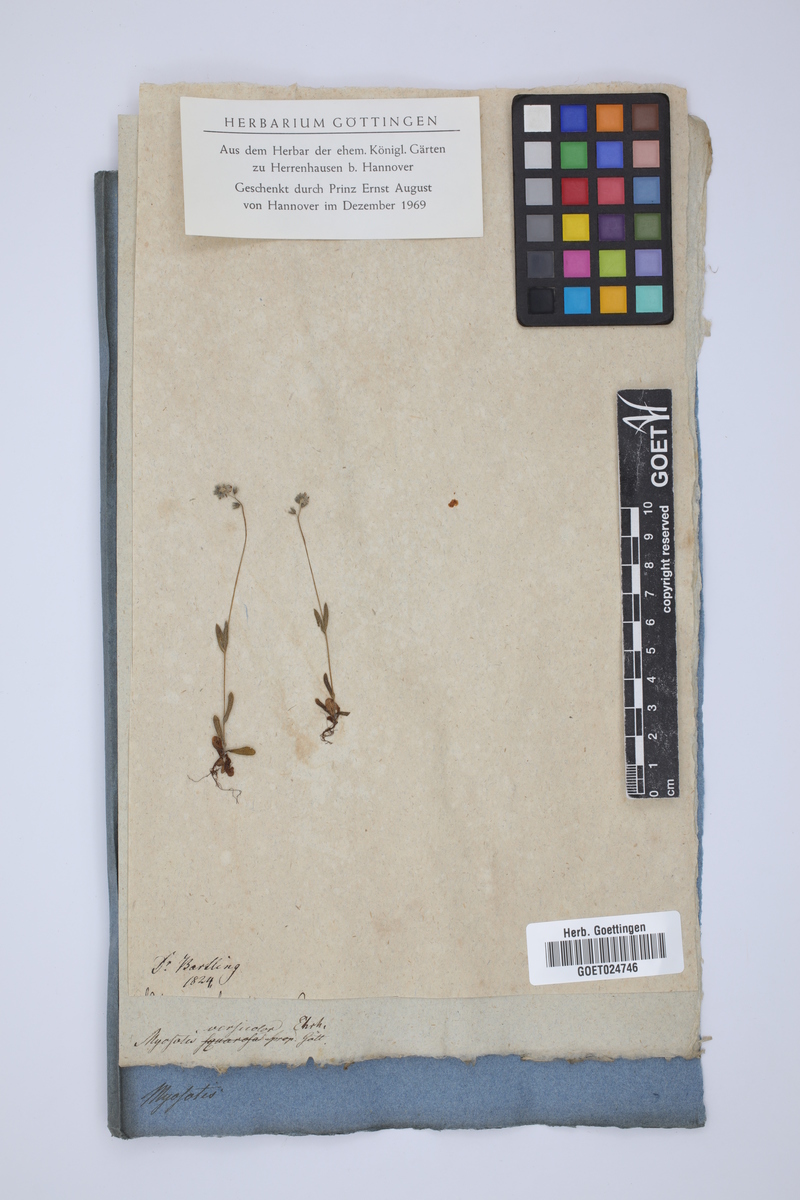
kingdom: Plantae
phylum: Tracheophyta
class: Magnoliopsida
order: Boraginales
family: Boraginaceae
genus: Myosotis
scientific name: Myosotis discolor
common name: Changing forget-me-not
